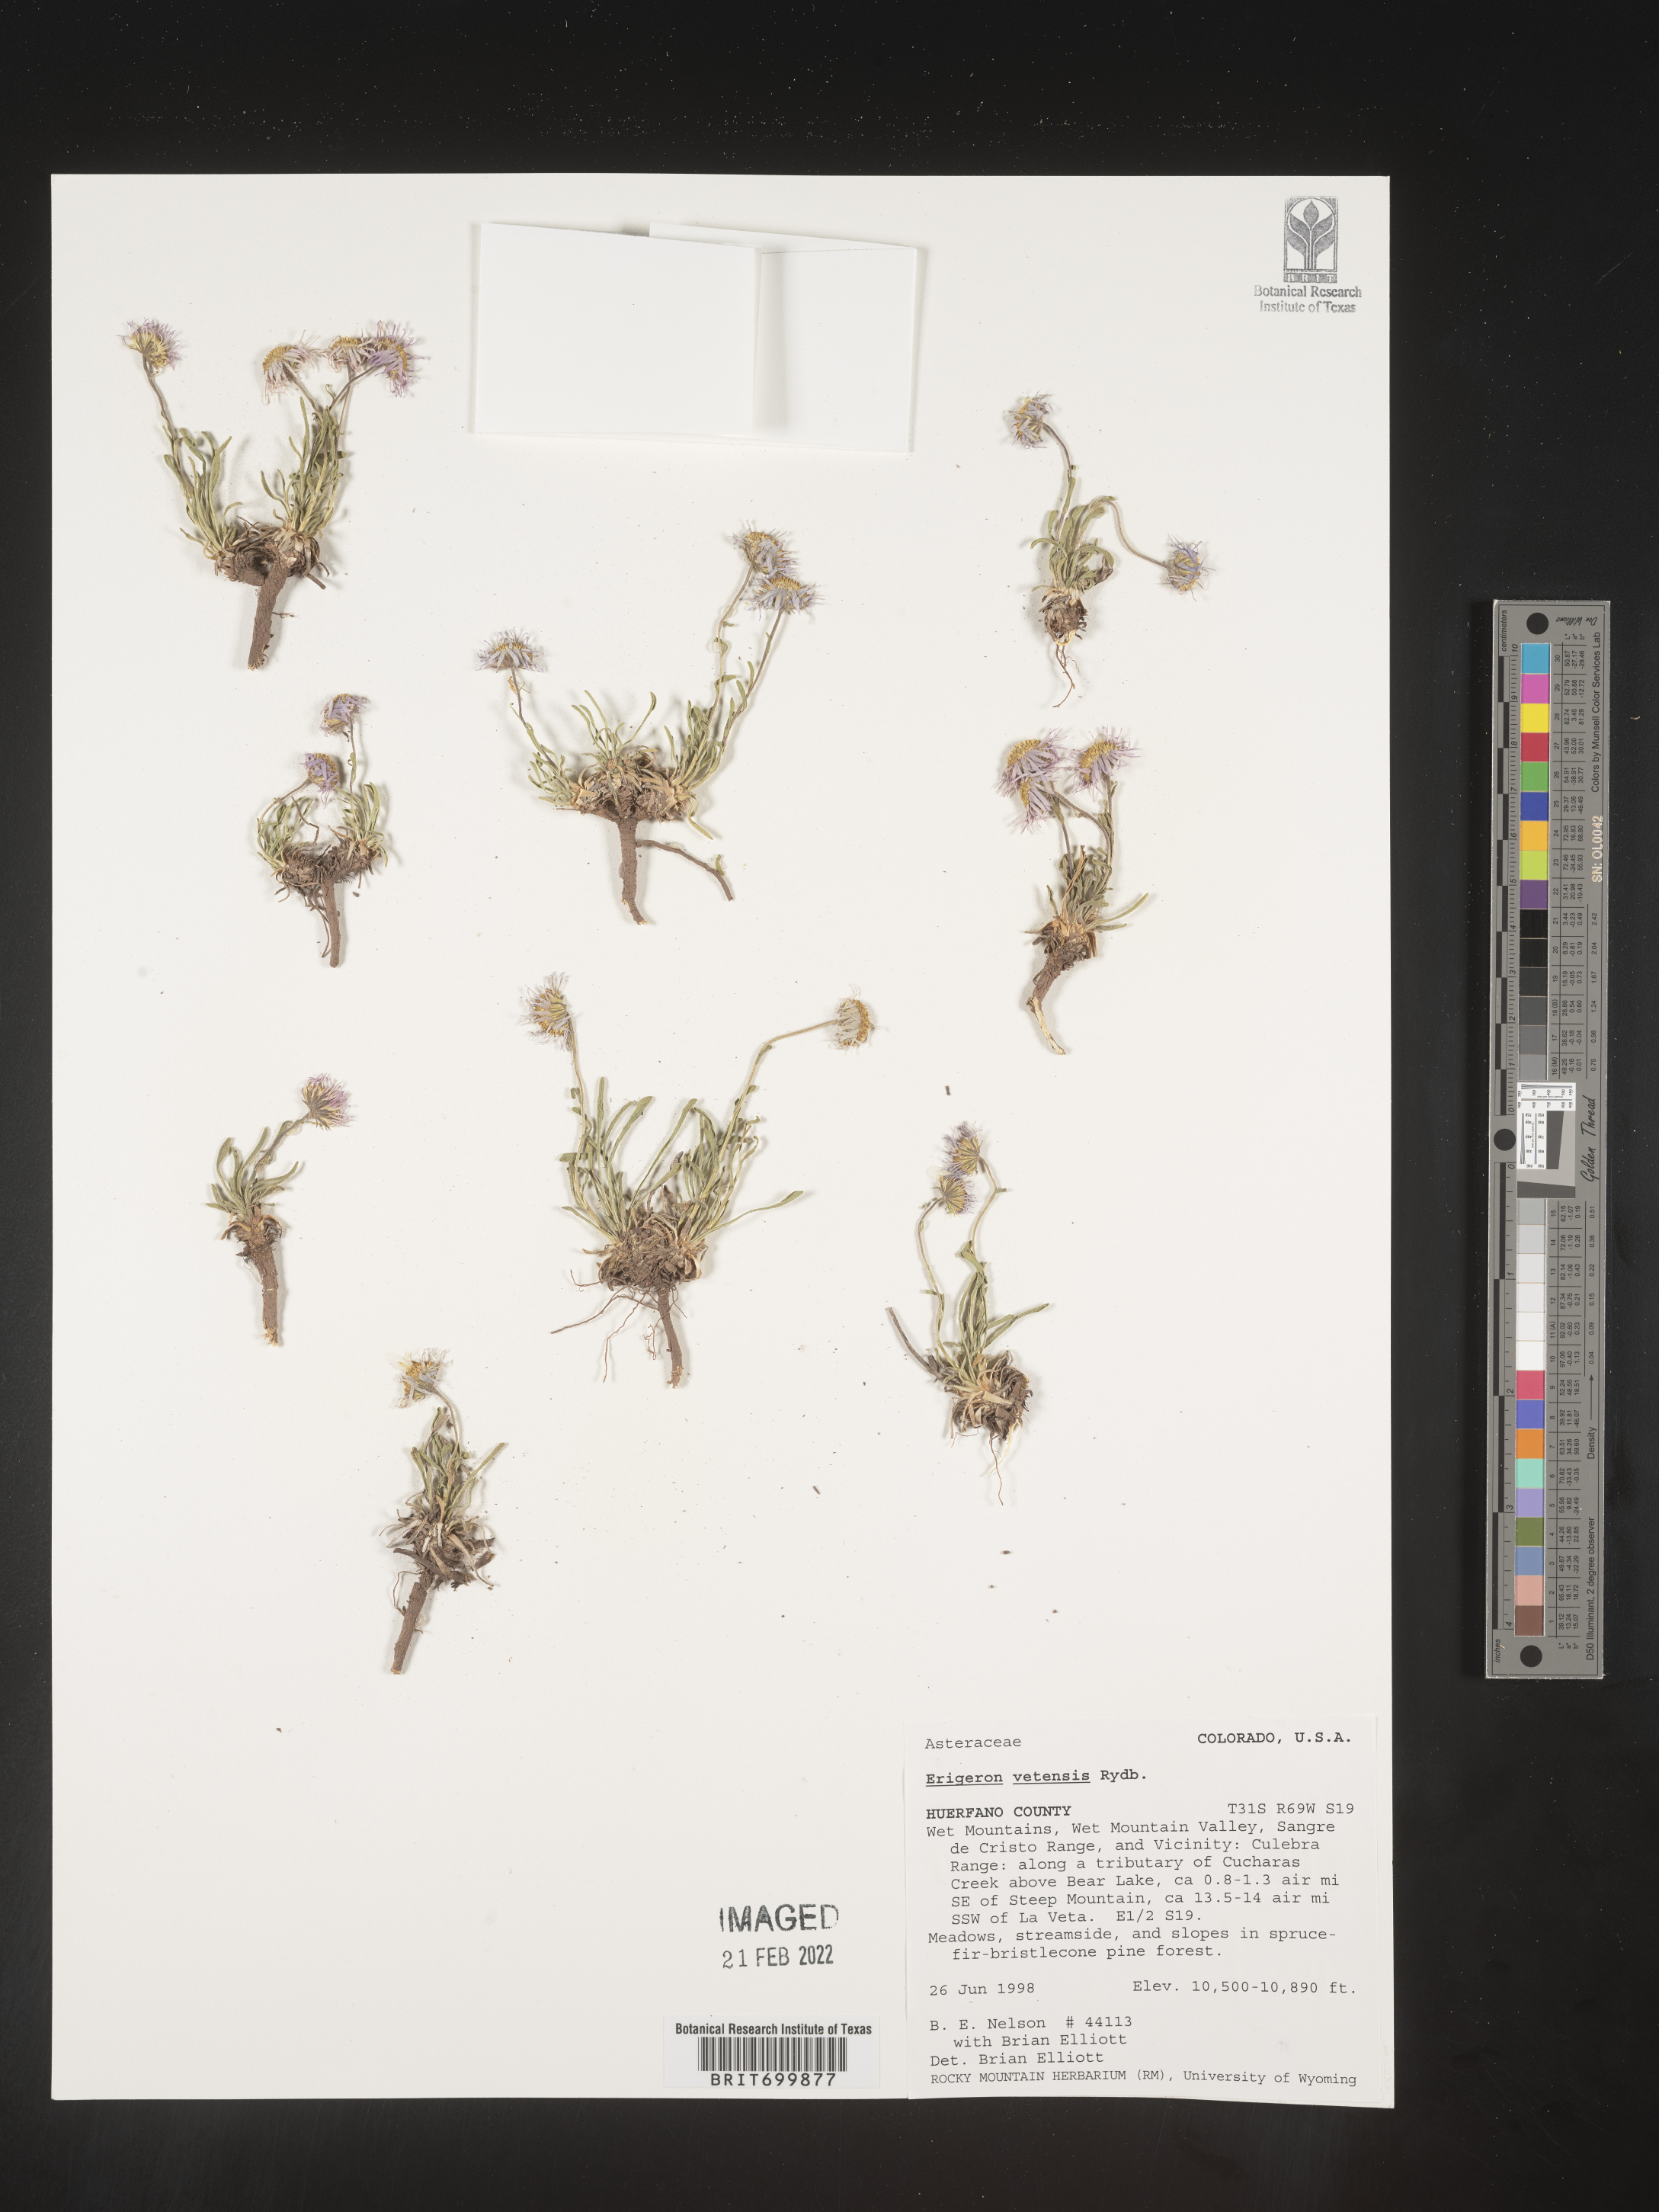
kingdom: Plantae
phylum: Tracheophyta
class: Magnoliopsida
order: Asterales
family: Asteraceae
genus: Erigeron
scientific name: Erigeron vetensis
